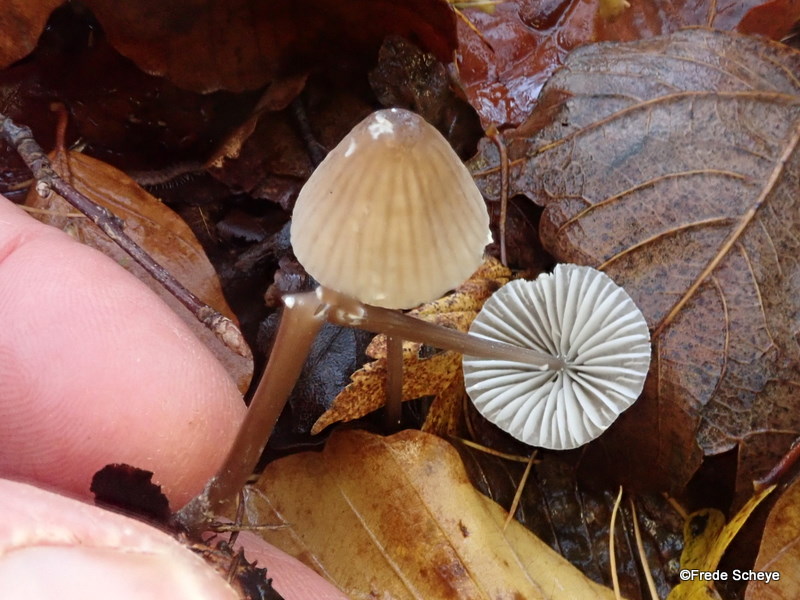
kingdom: Fungi
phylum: Basidiomycota
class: Agaricomycetes
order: Agaricales
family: Mycenaceae
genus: Mycena
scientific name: Mycena galopus
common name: hvidmælket huesvamp
